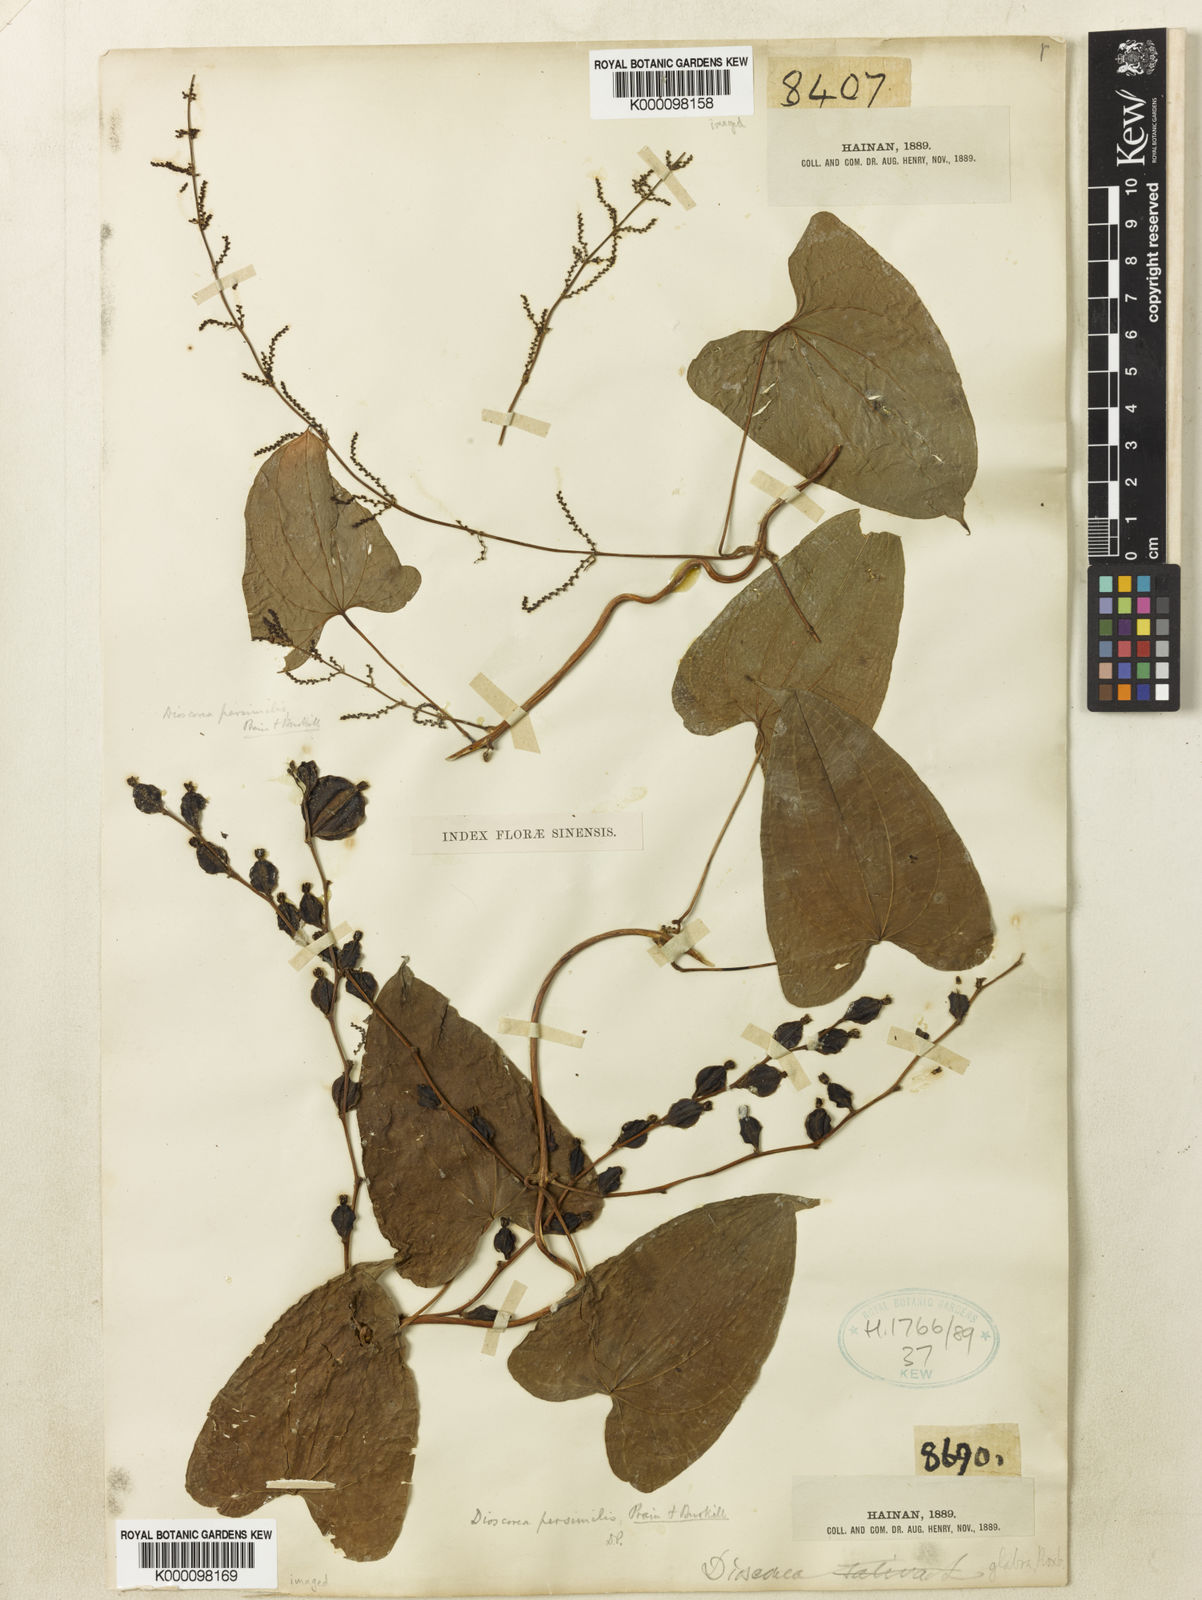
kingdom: Plantae
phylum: Tracheophyta
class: Liliopsida
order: Dioscoreales
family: Dioscoreaceae
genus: Dioscorea
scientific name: Dioscorea hamiltonii
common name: Mountain yam
